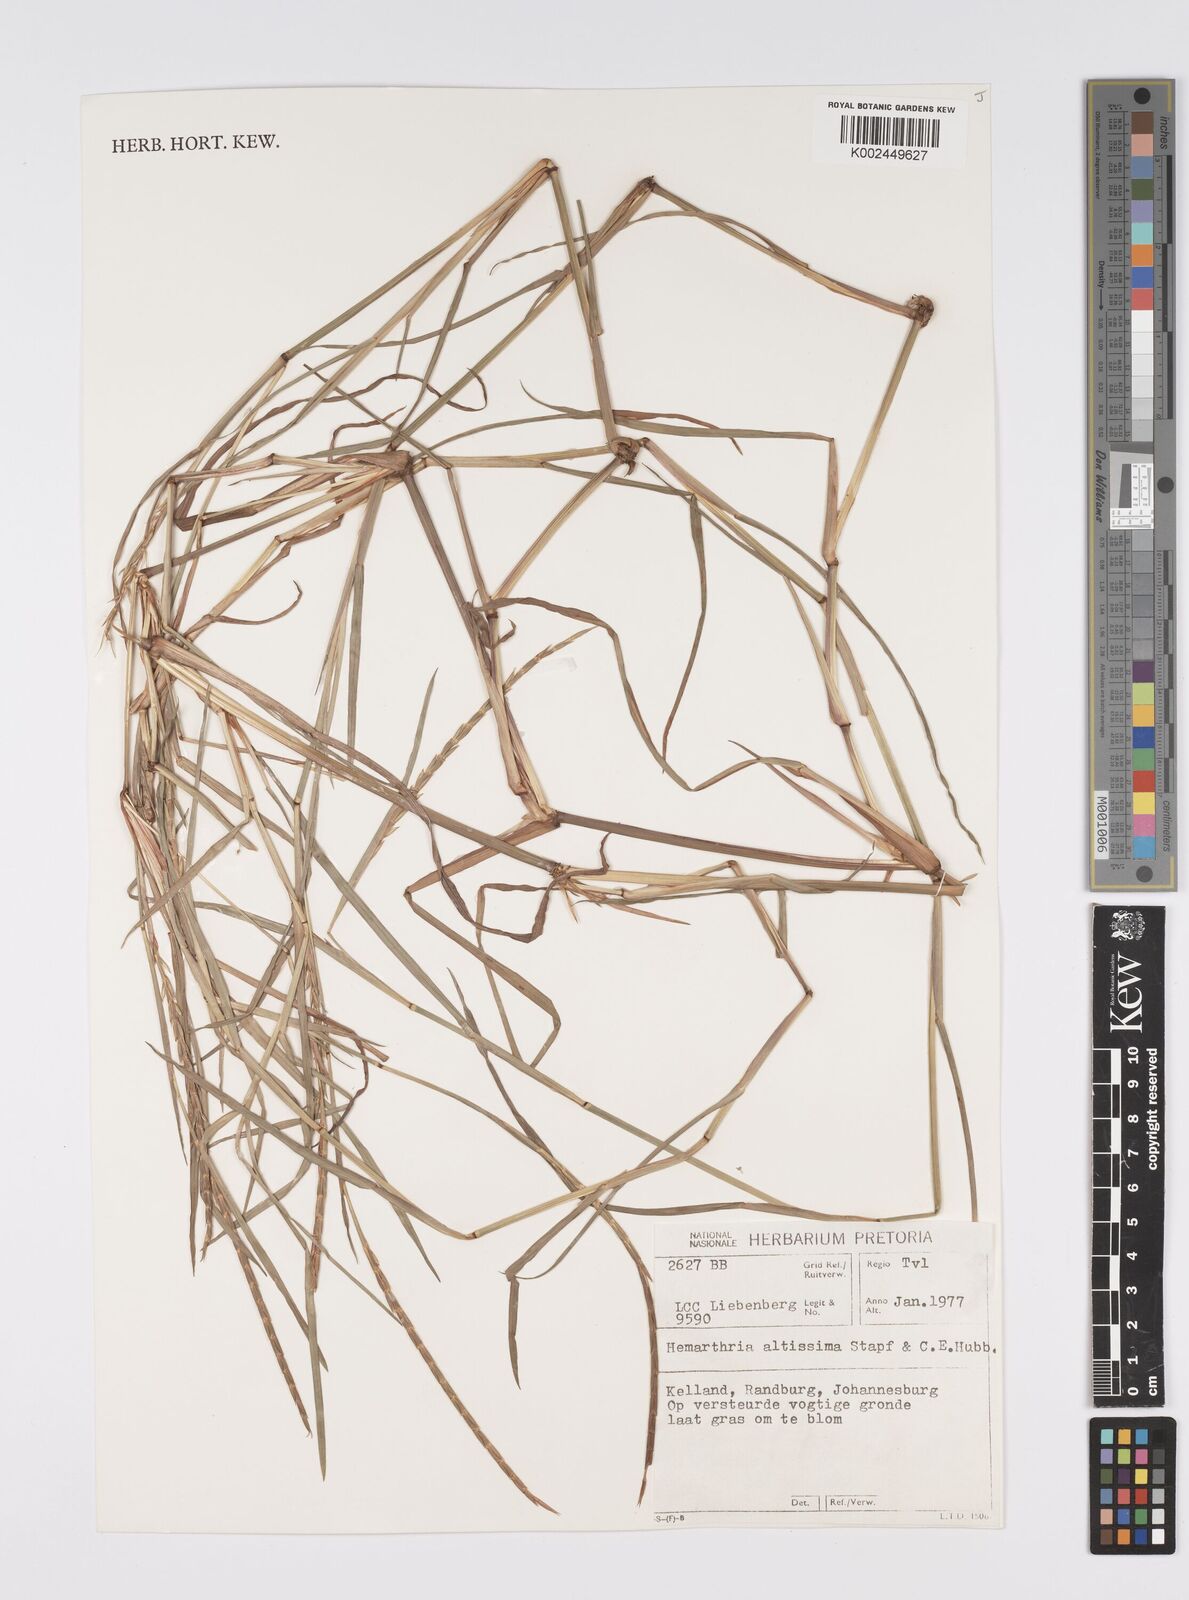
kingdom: Plantae
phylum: Tracheophyta
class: Liliopsida
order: Poales
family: Poaceae
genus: Hemarthria
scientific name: Hemarthria altissima
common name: African jointgrass
